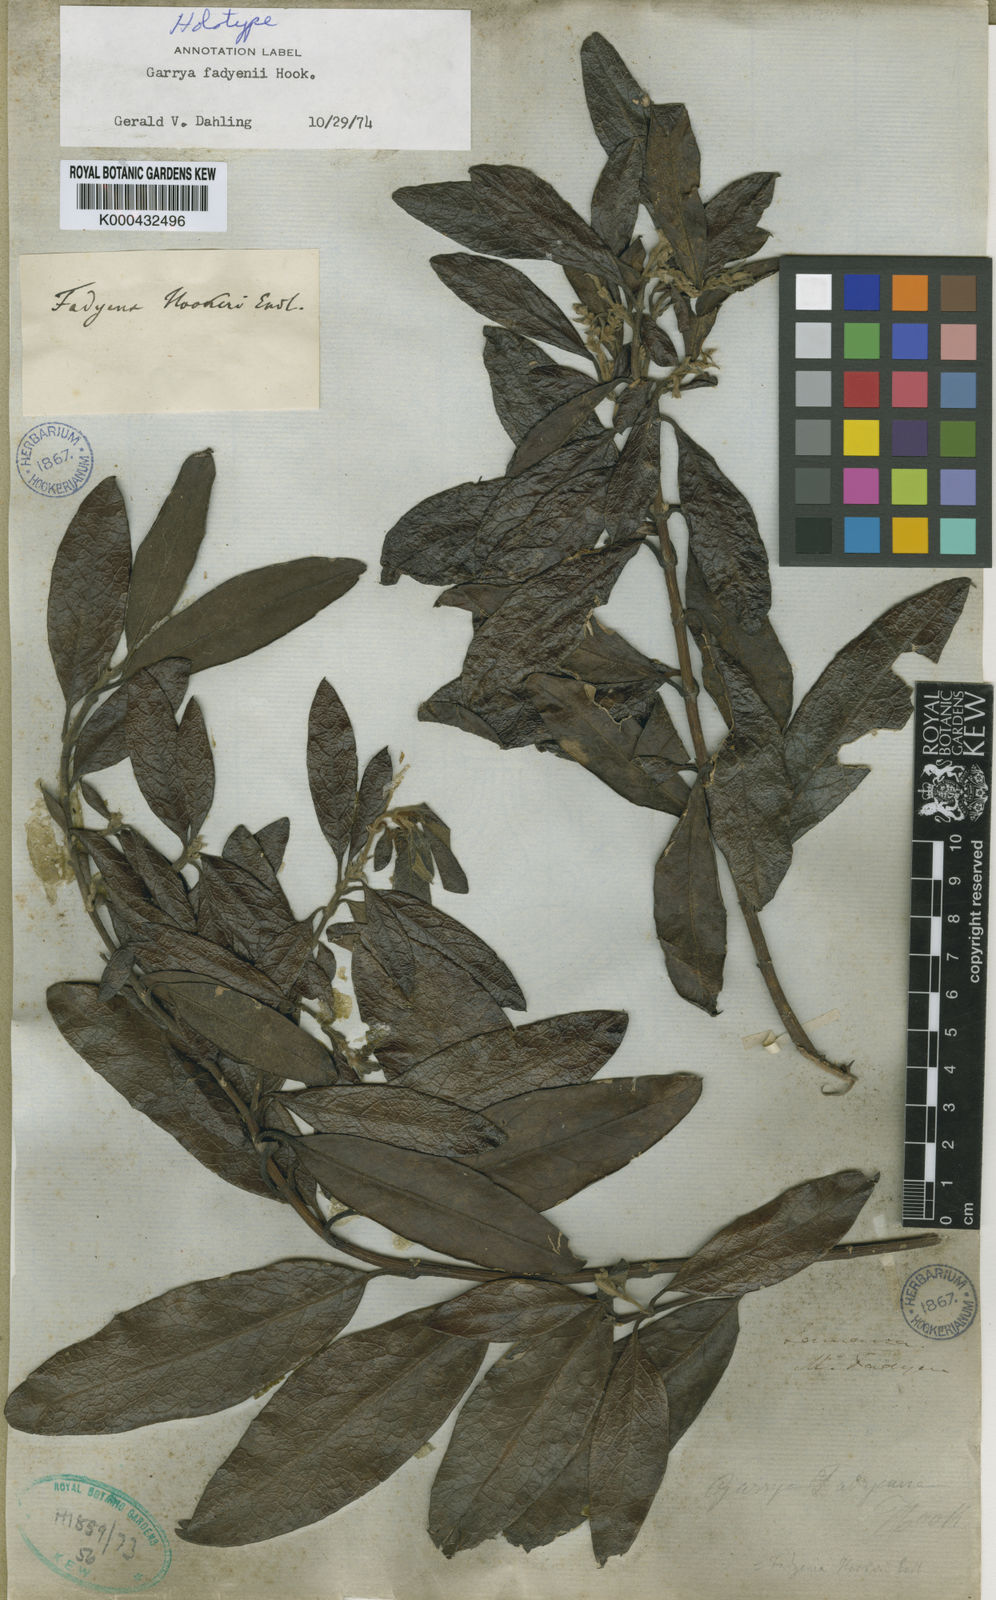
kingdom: Plantae
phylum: Tracheophyta
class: Magnoliopsida
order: Garryales
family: Garryaceae
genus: Garrya
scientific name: Garrya fadyenii
